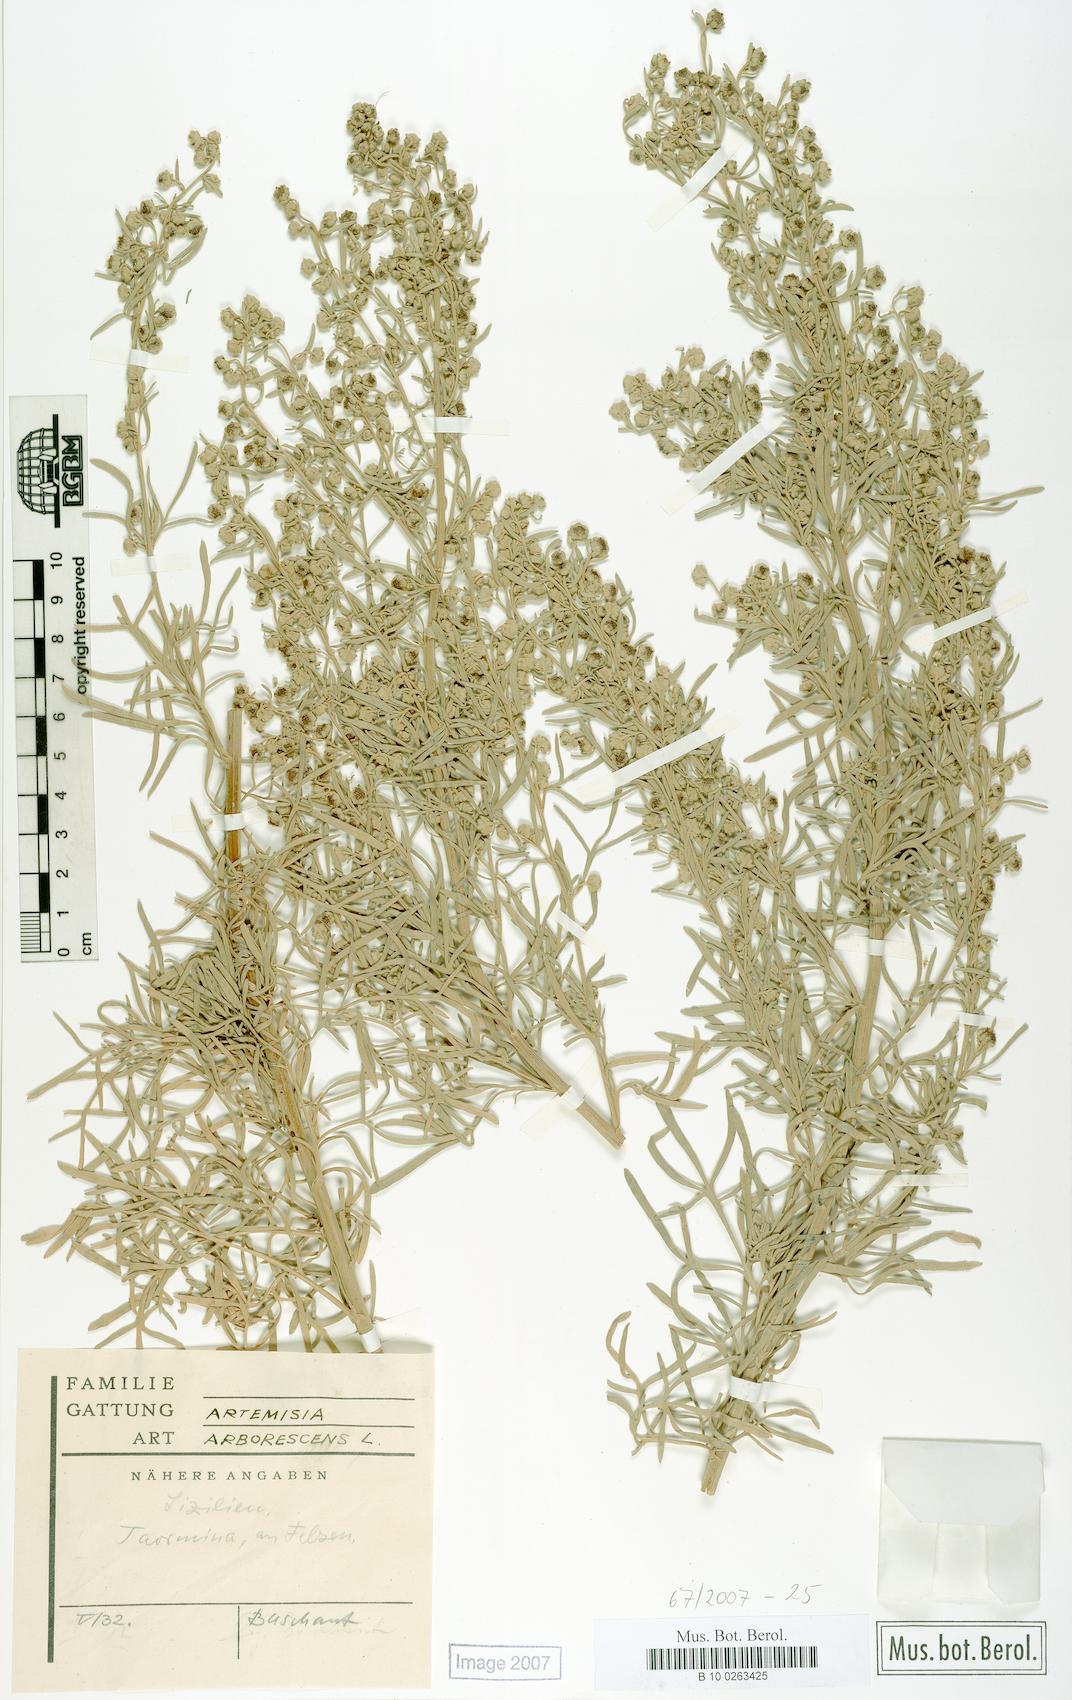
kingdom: Plantae
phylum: Tracheophyta
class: Magnoliopsida
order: Asterales
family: Asteraceae
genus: Artemisia
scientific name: Artemisia arborescens
